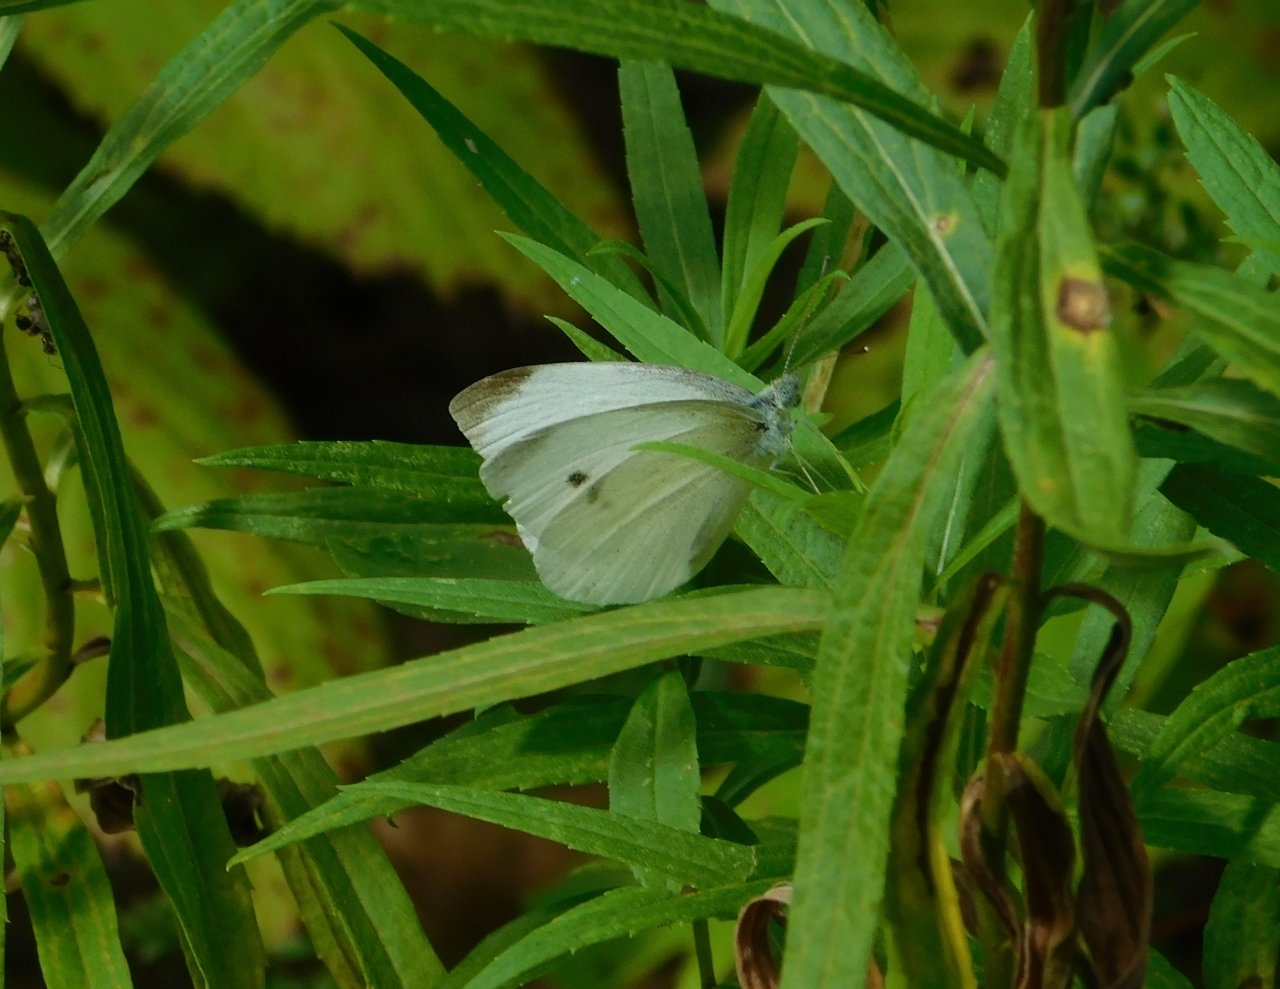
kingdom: Animalia
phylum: Arthropoda
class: Insecta
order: Lepidoptera
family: Pieridae
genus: Pieris
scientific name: Pieris rapae
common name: Cabbage White
